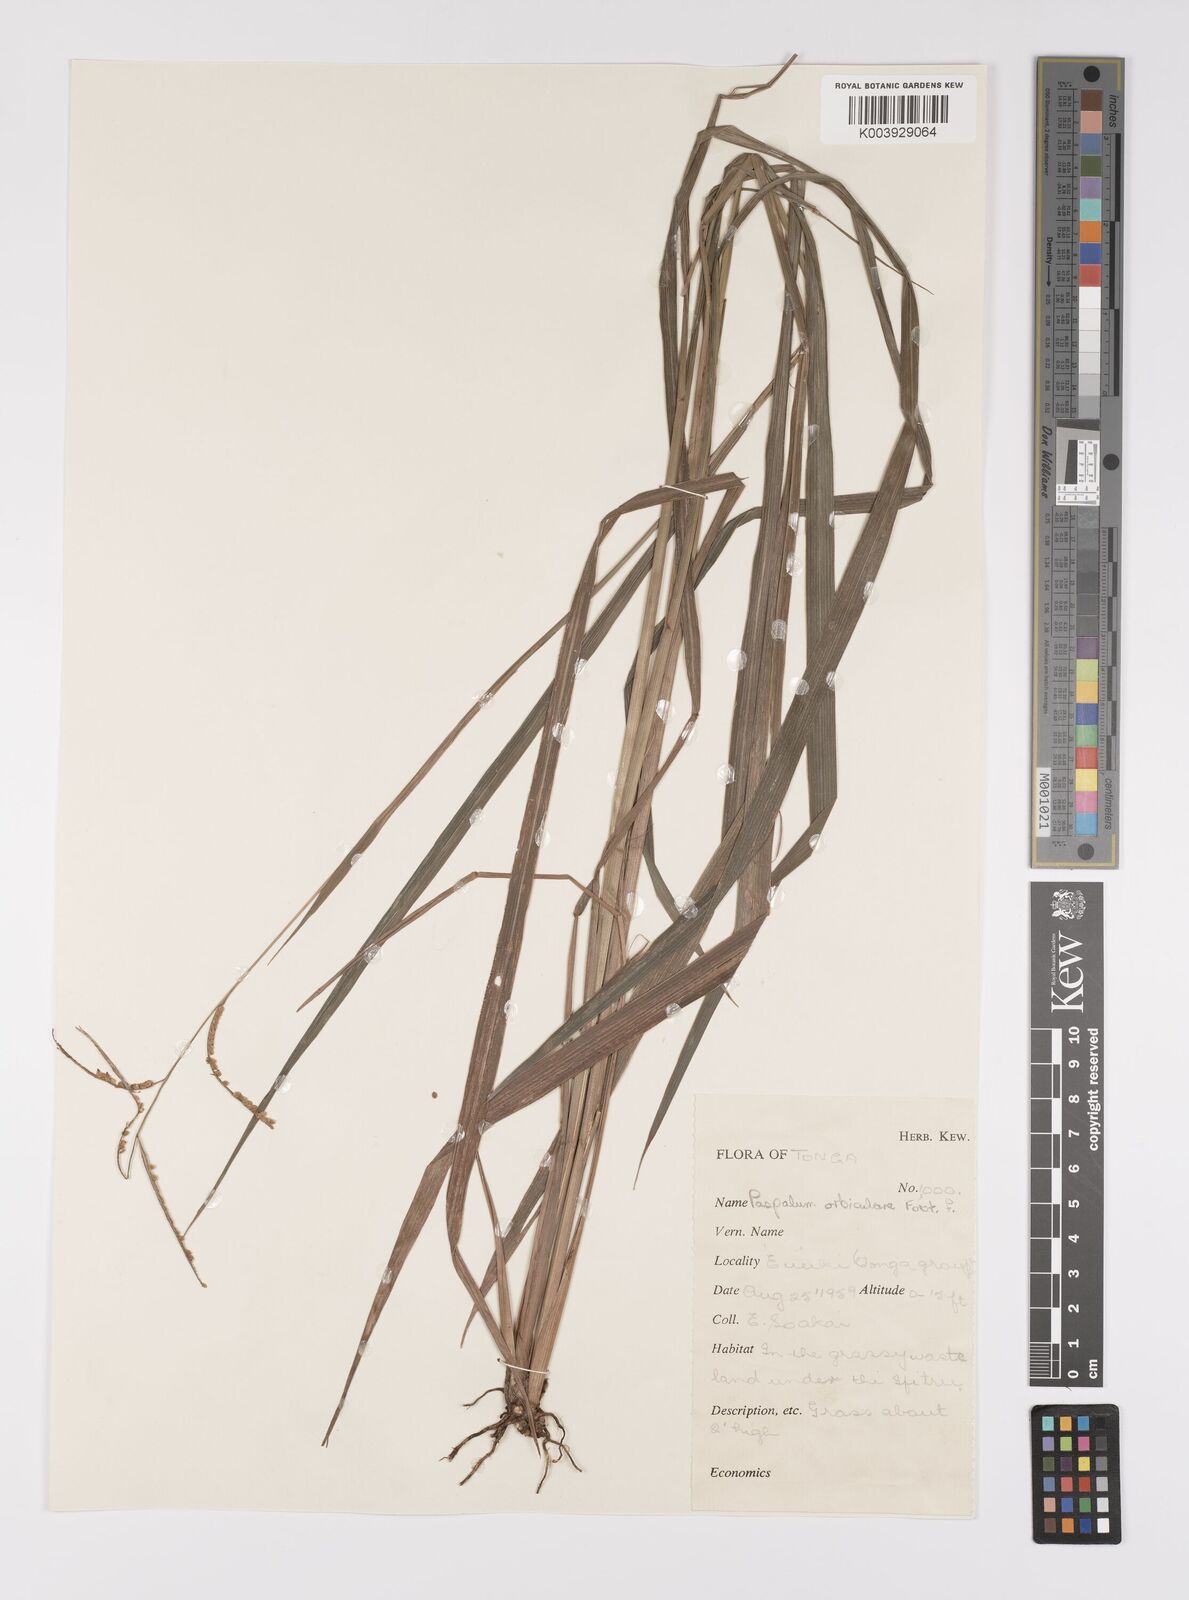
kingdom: Plantae
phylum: Tracheophyta
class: Liliopsida
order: Poales
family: Poaceae
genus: Paspalum
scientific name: Paspalum scrobiculatum
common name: Kodo millet
